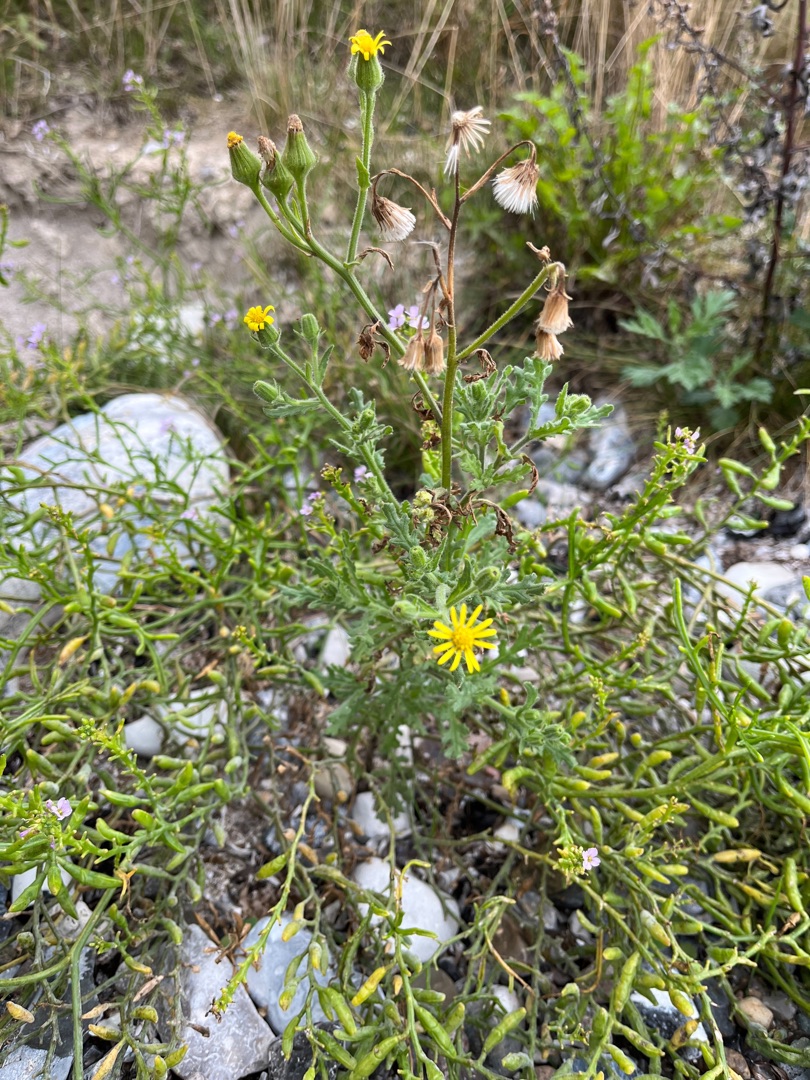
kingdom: Plantae
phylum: Tracheophyta
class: Magnoliopsida
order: Asterales
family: Asteraceae
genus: Senecio
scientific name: Senecio viscosus
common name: Klæbrig brandbæger
